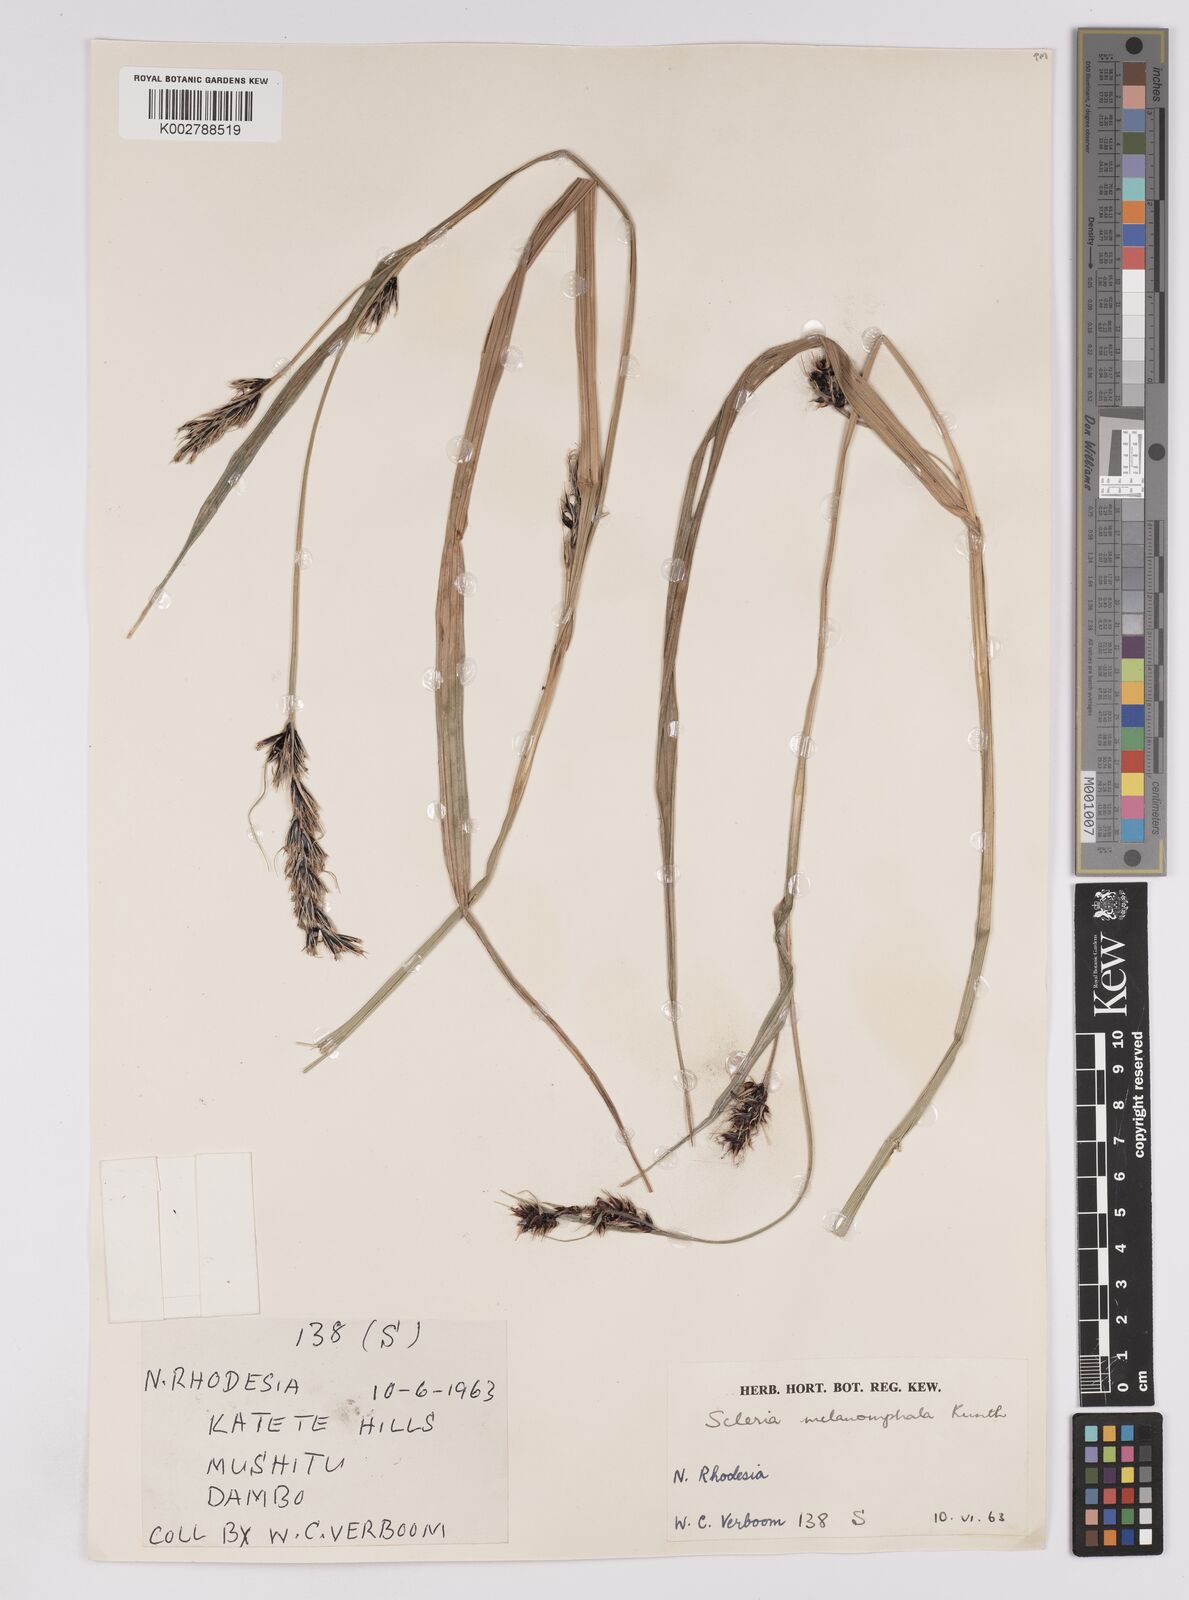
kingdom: Plantae
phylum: Tracheophyta
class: Liliopsida
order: Poales
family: Cyperaceae
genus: Scleria
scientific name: Scleria melanomphala
